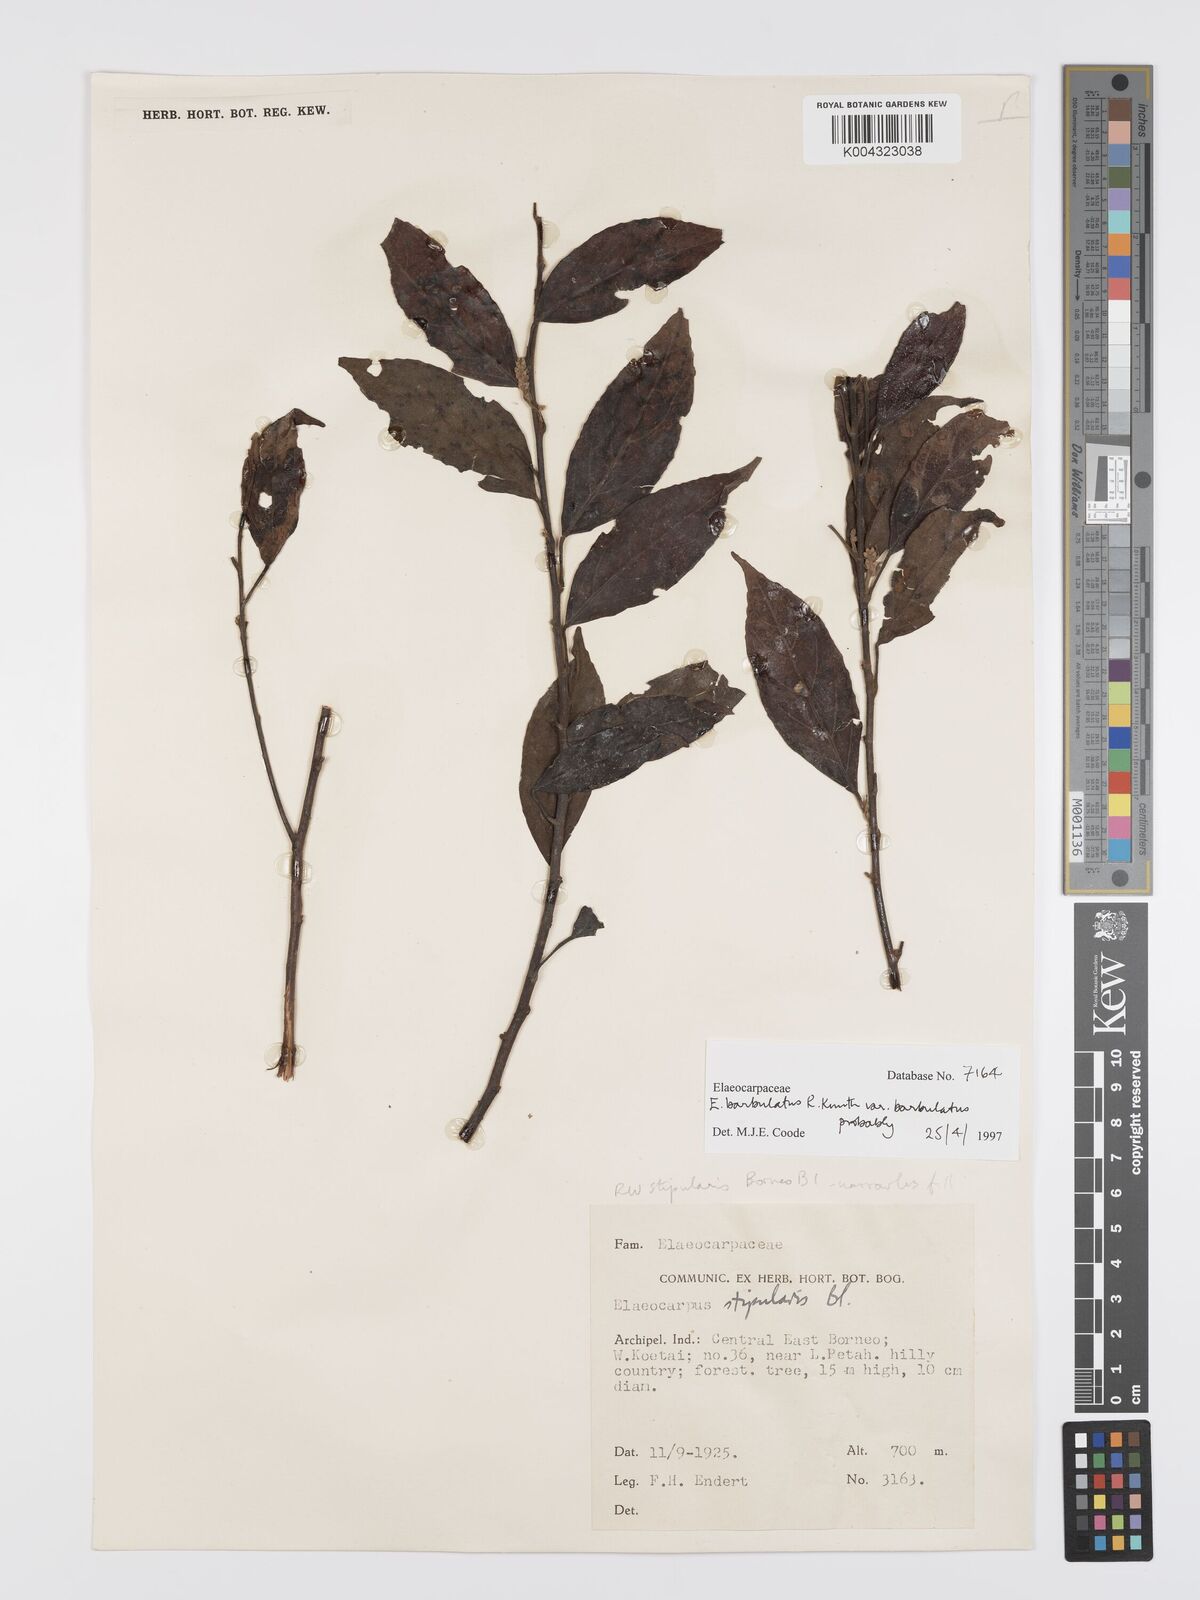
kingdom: Plantae
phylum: Tracheophyta
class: Magnoliopsida
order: Oxalidales
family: Elaeocarpaceae
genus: Elaeocarpus
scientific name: Elaeocarpus barbulatus
